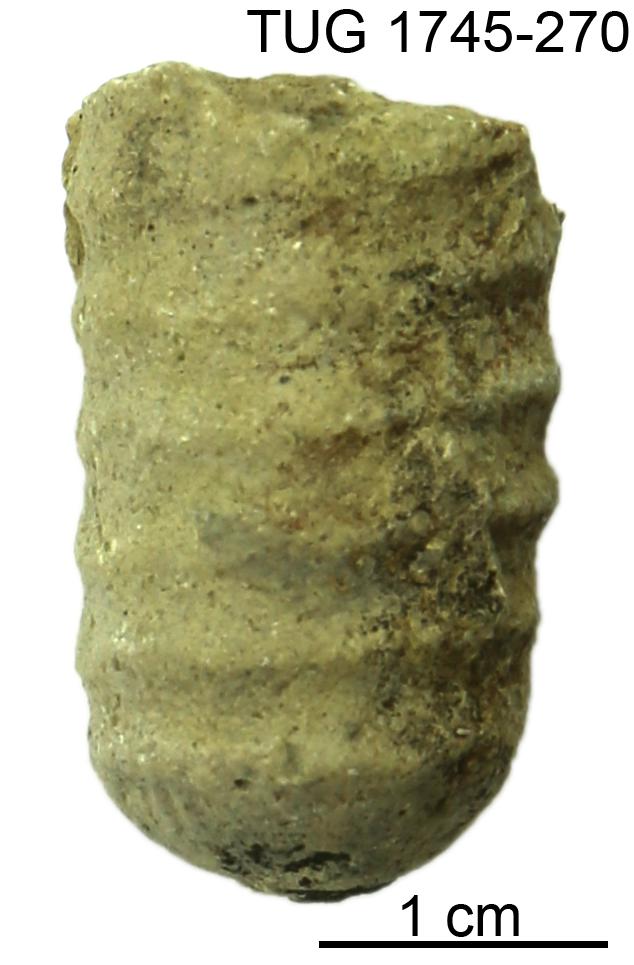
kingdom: Animalia
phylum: Mollusca
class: Cephalopoda
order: Orthocerida
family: Dawsonoceratidae
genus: Palaeodawsonocerina
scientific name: Palaeodawsonocerina Spyroceras senckenbergi
